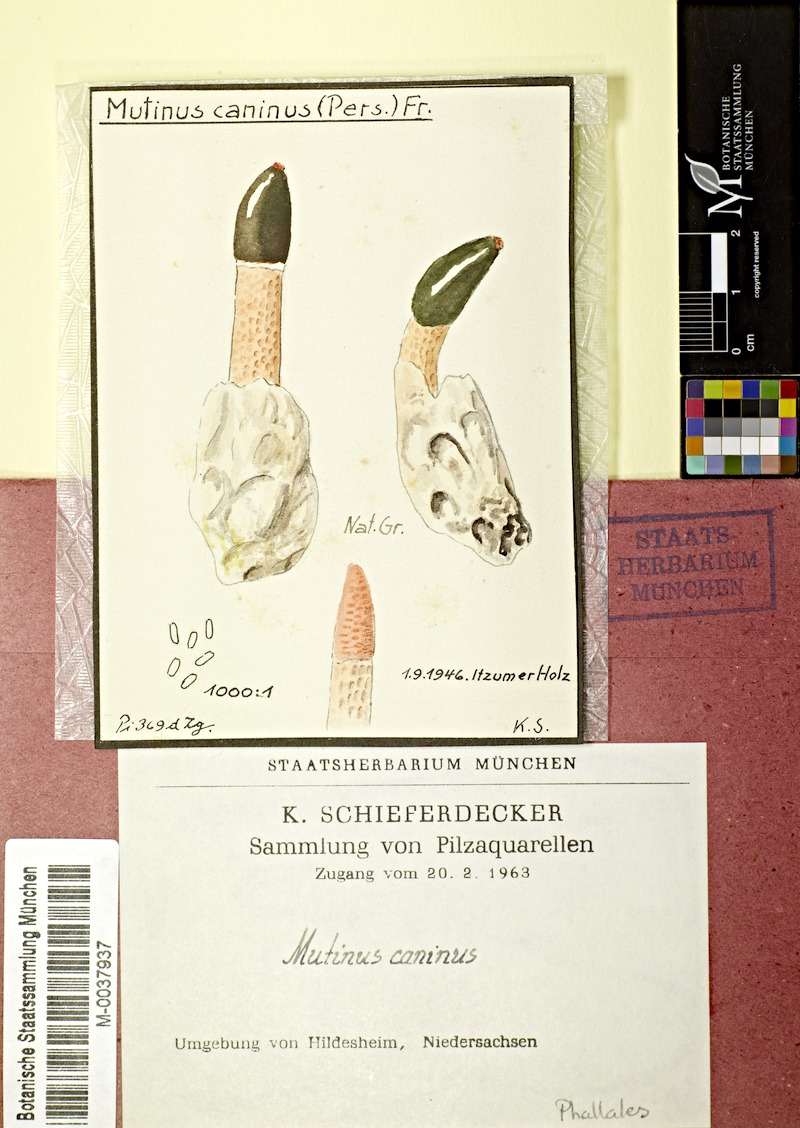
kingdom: Fungi
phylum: Basidiomycota
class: Agaricomycetes
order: Phallales
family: Phallaceae
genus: Mutinus
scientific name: Mutinus caninus
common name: Dog stinkhorn
